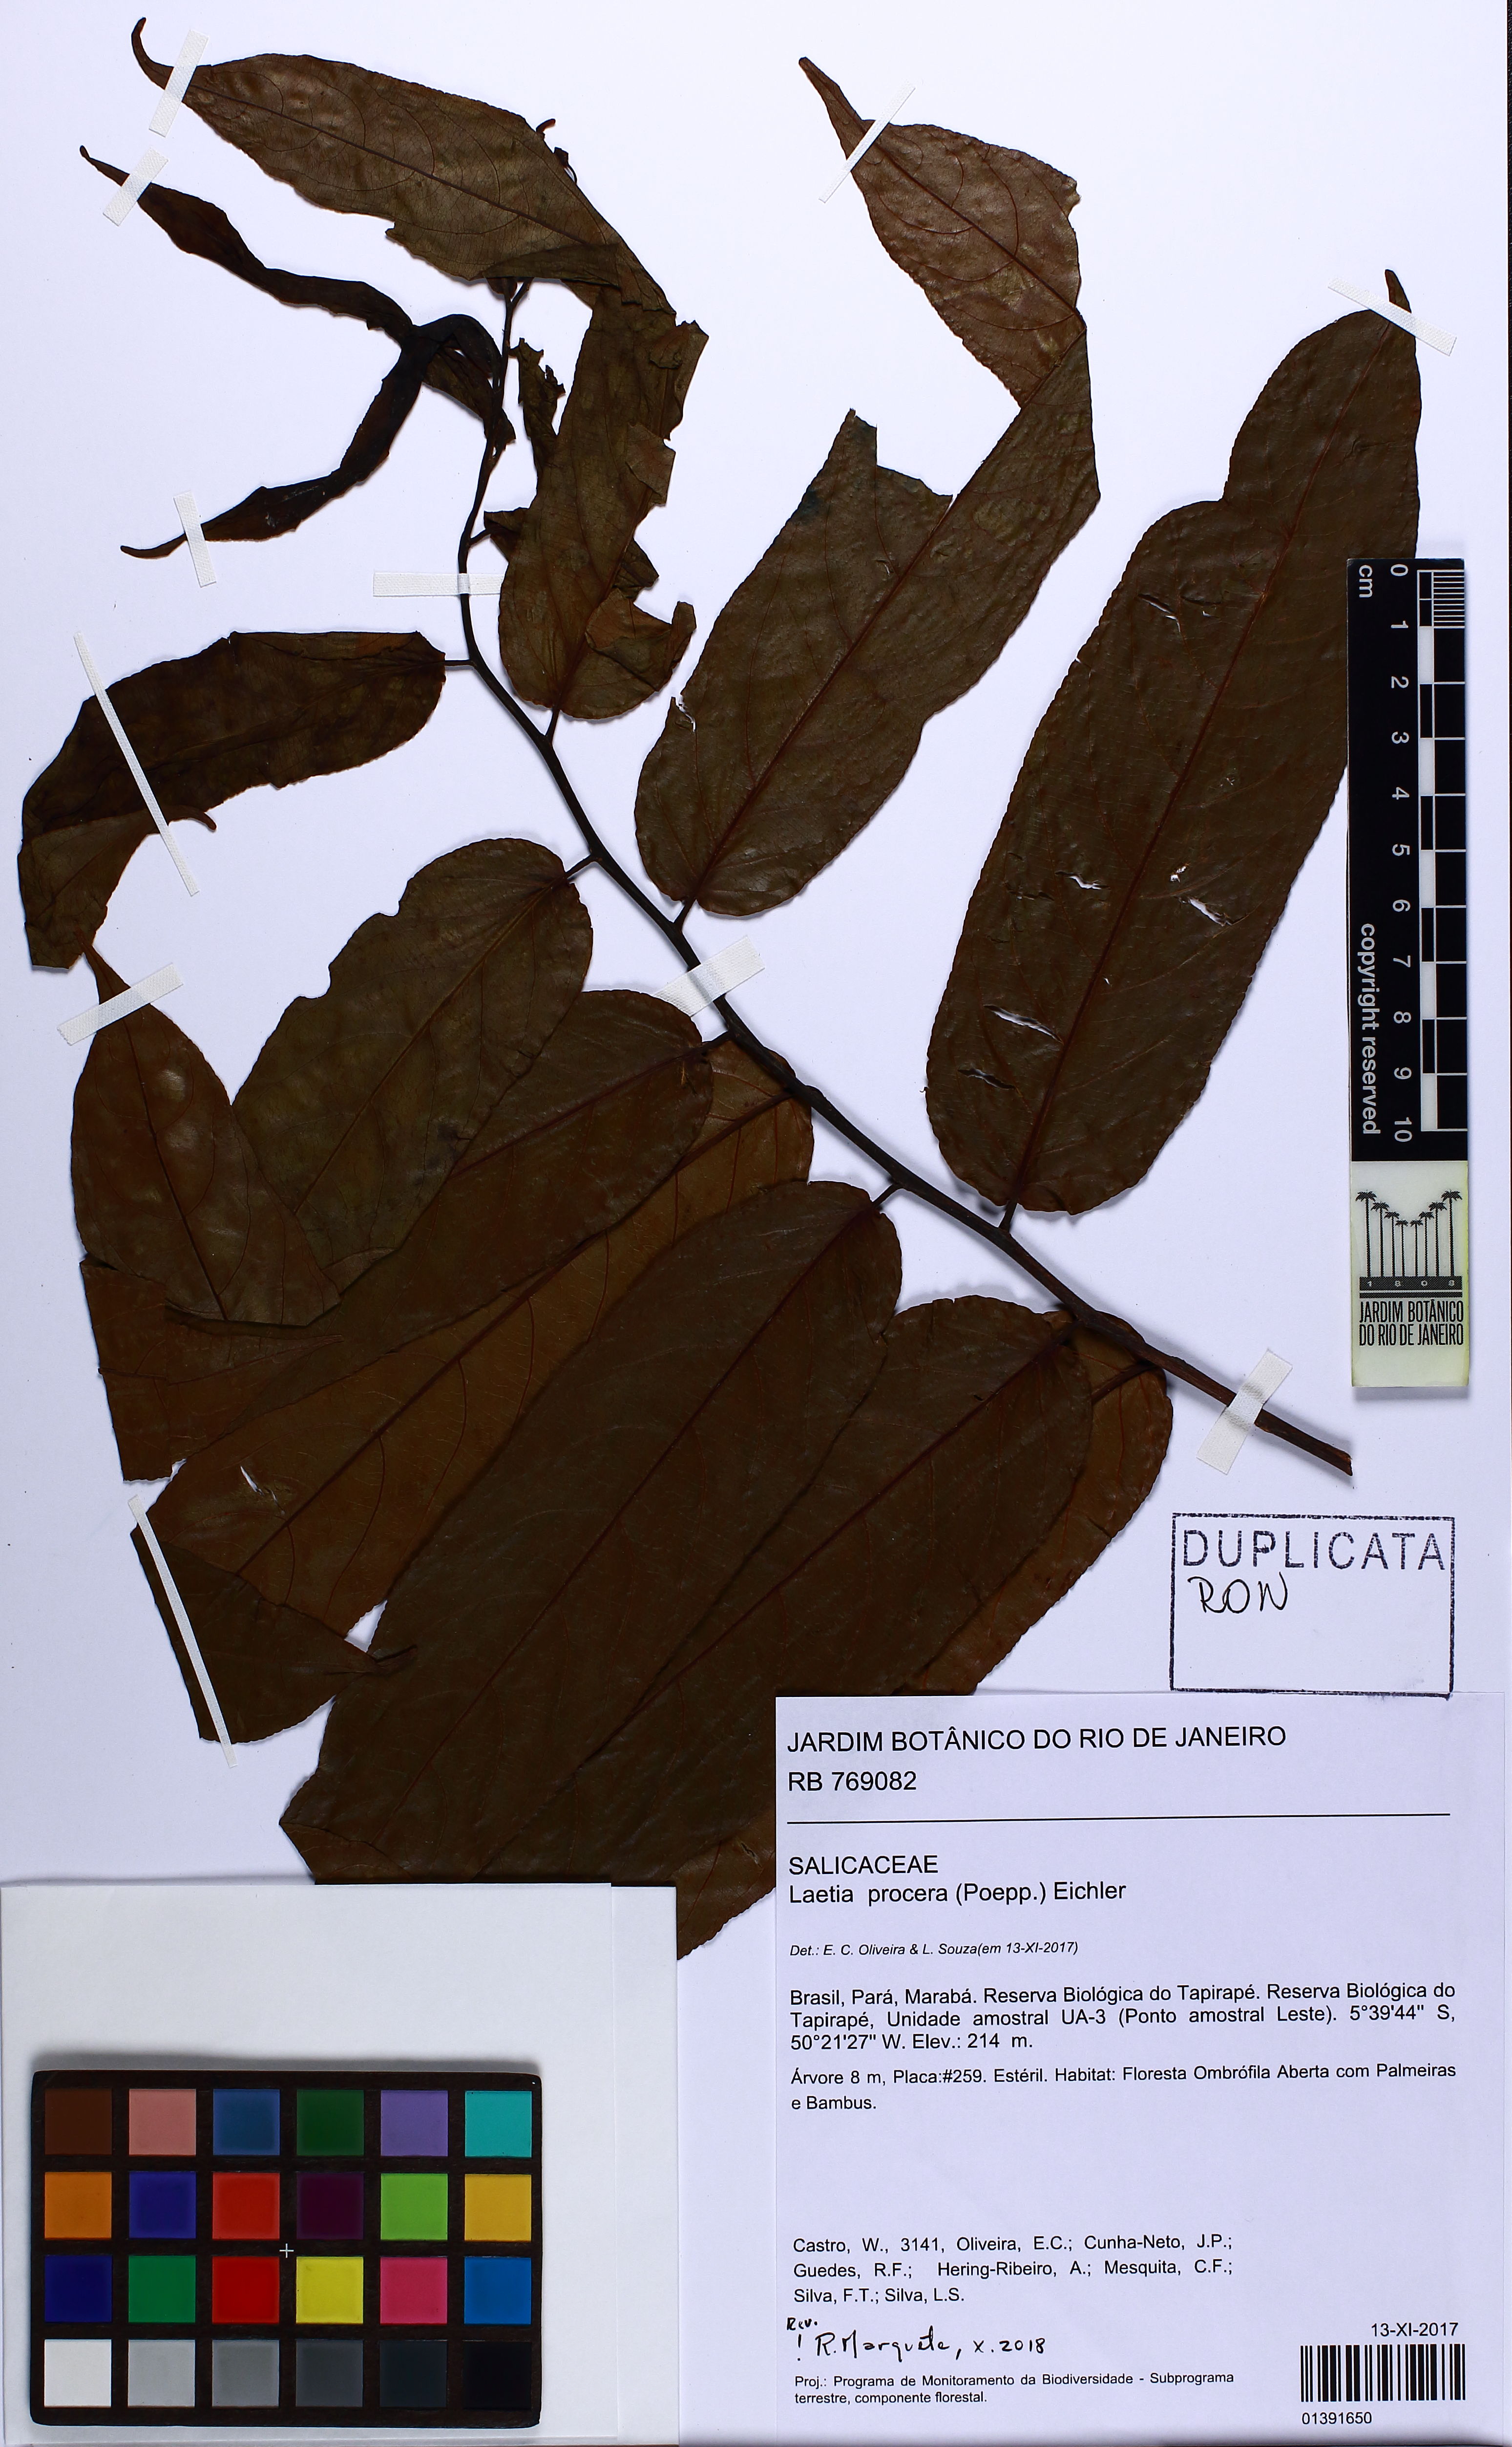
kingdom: Plantae
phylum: Tracheophyta
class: Magnoliopsida
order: Malpighiales
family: Salicaceae
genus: Casearia
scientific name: Casearia bicolor
